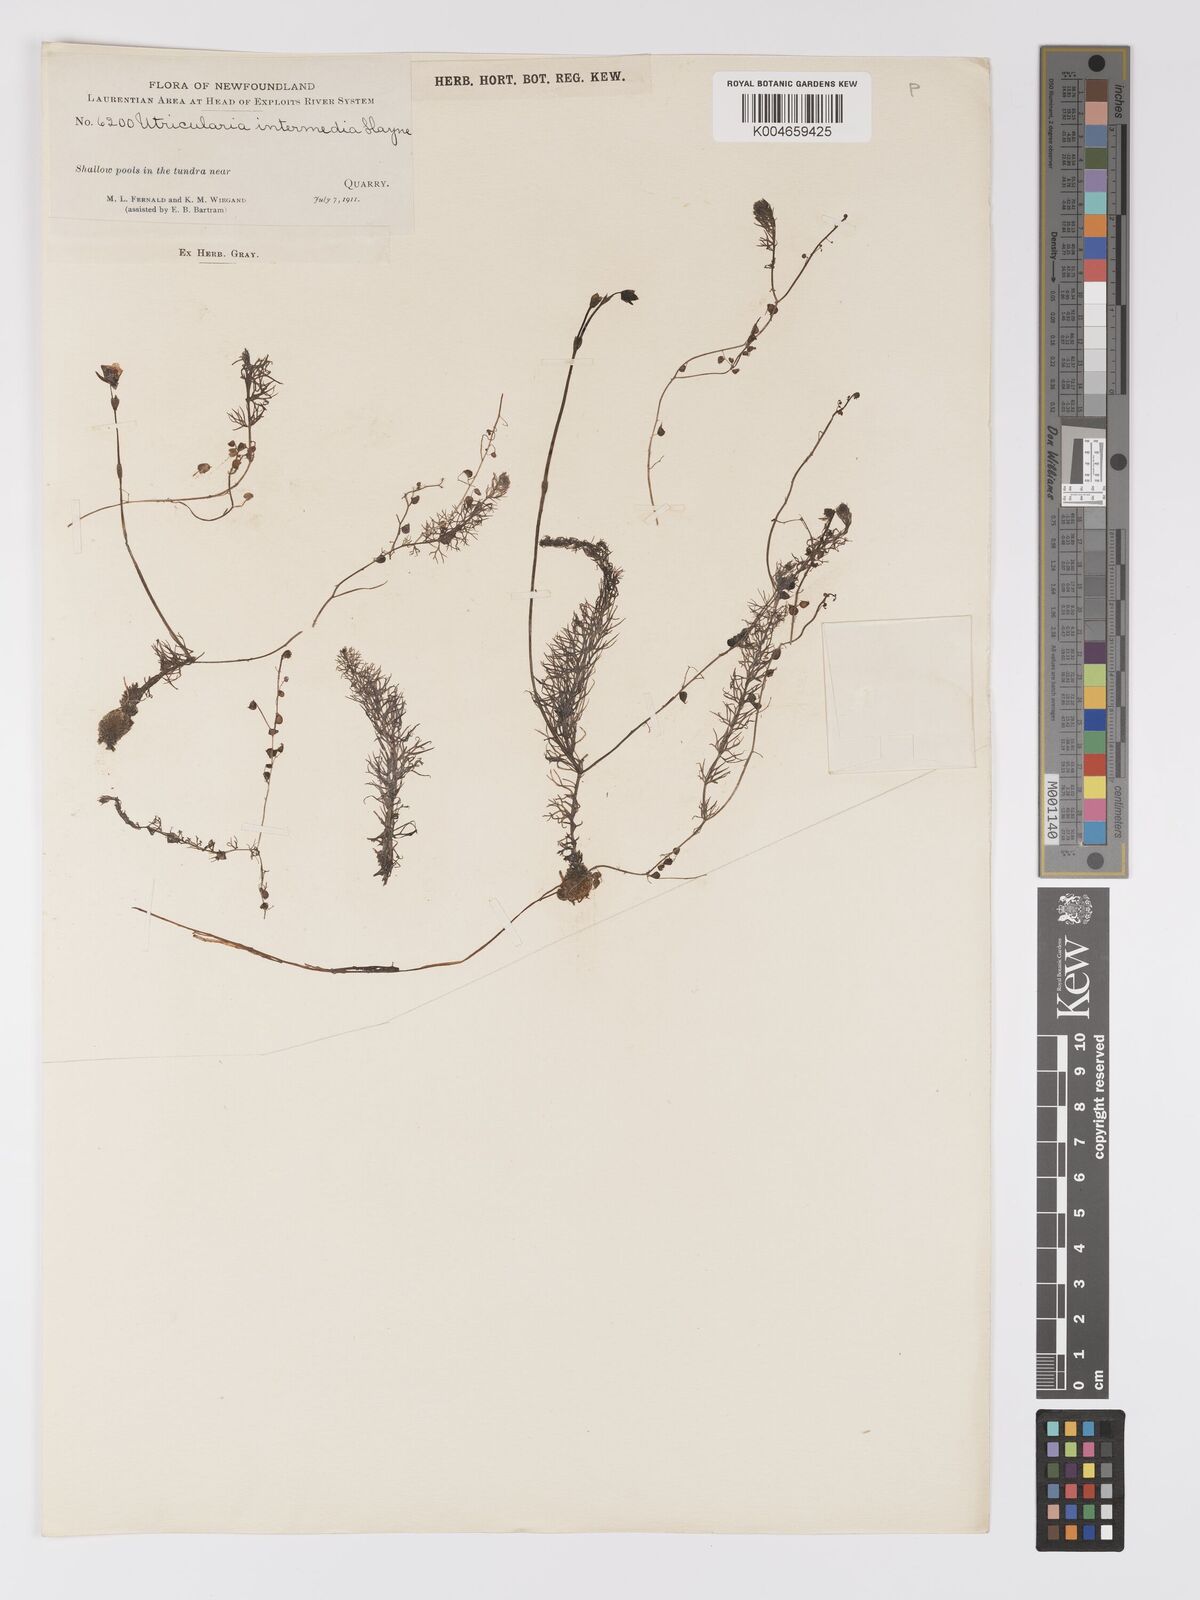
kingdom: Plantae
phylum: Tracheophyta
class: Magnoliopsida
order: Lamiales
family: Lentibulariaceae
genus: Utricularia
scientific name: Utricularia intermedia
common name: Intermediate bladderwort
